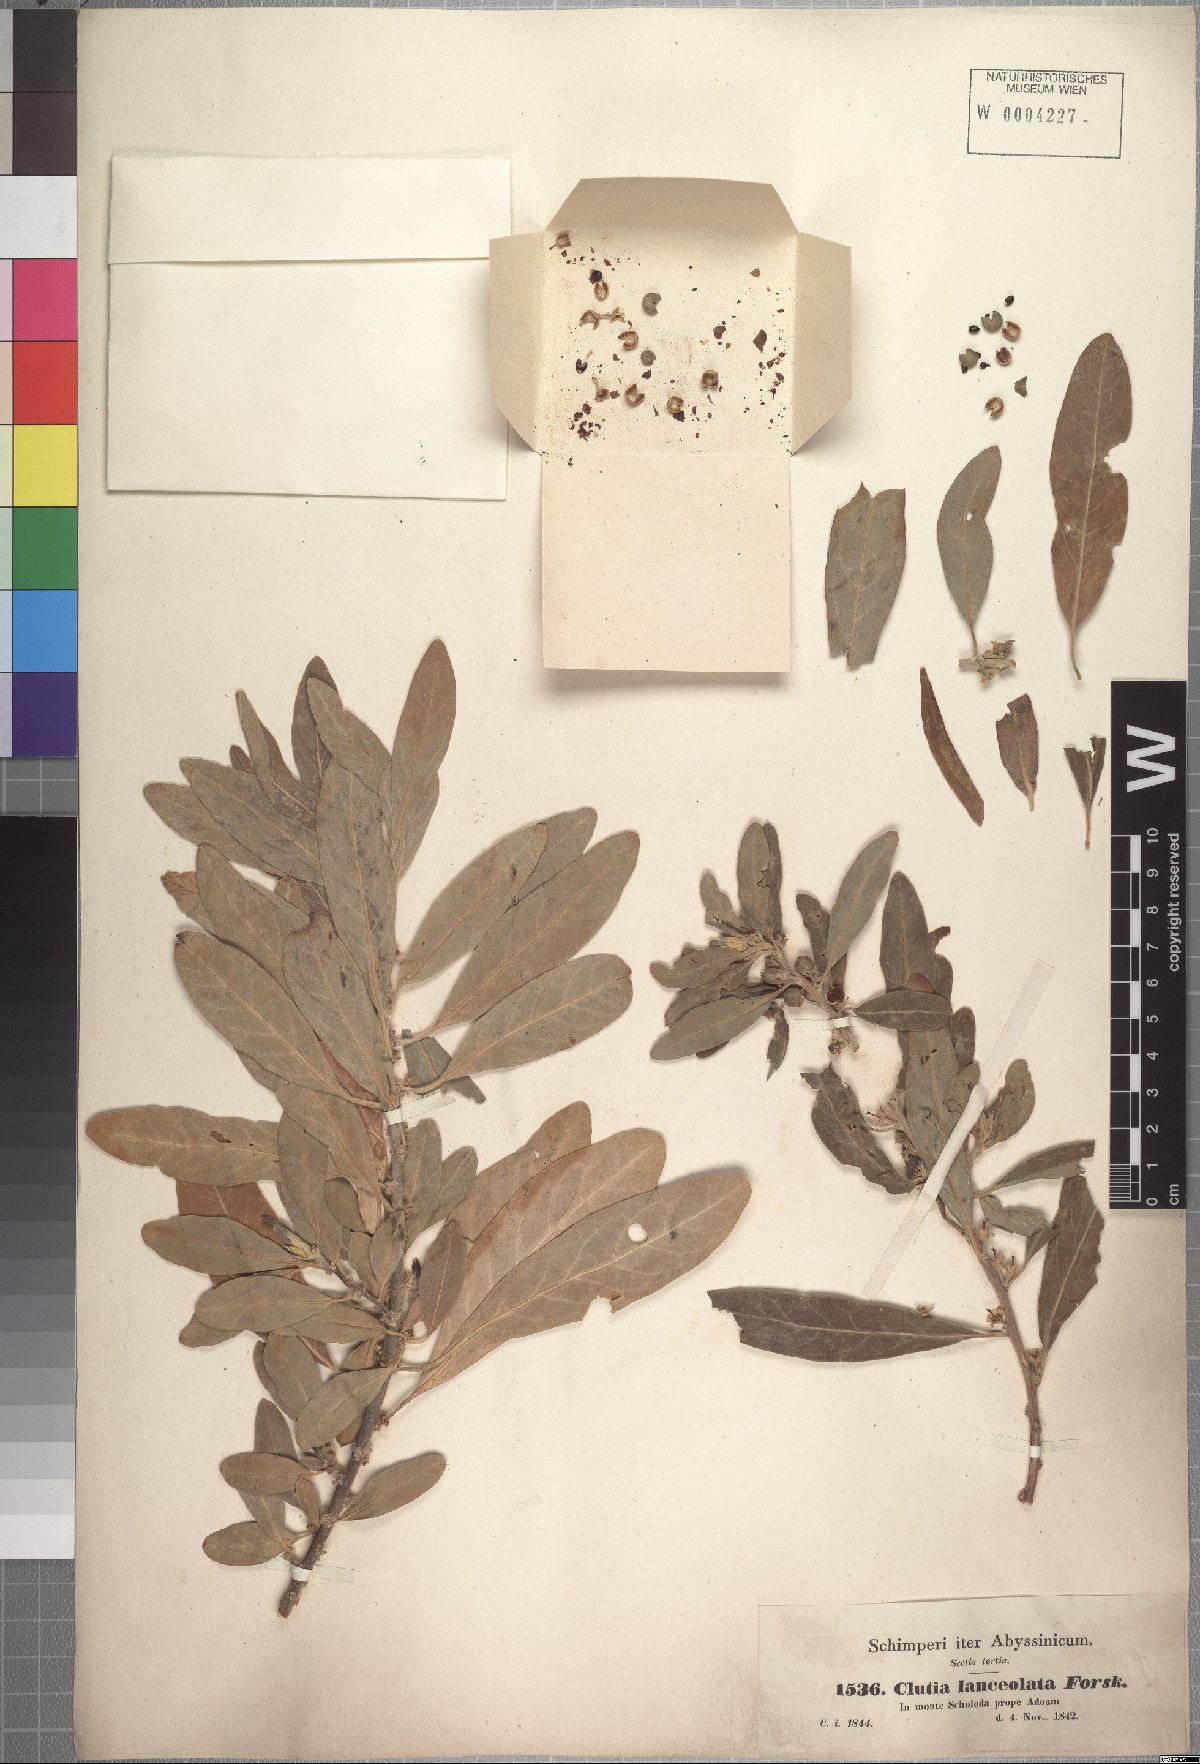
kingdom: Plantae
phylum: Tracheophyta
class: Magnoliopsida
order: Malpighiales
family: Peraceae
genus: Clutia
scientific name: Clutia lanceolata
